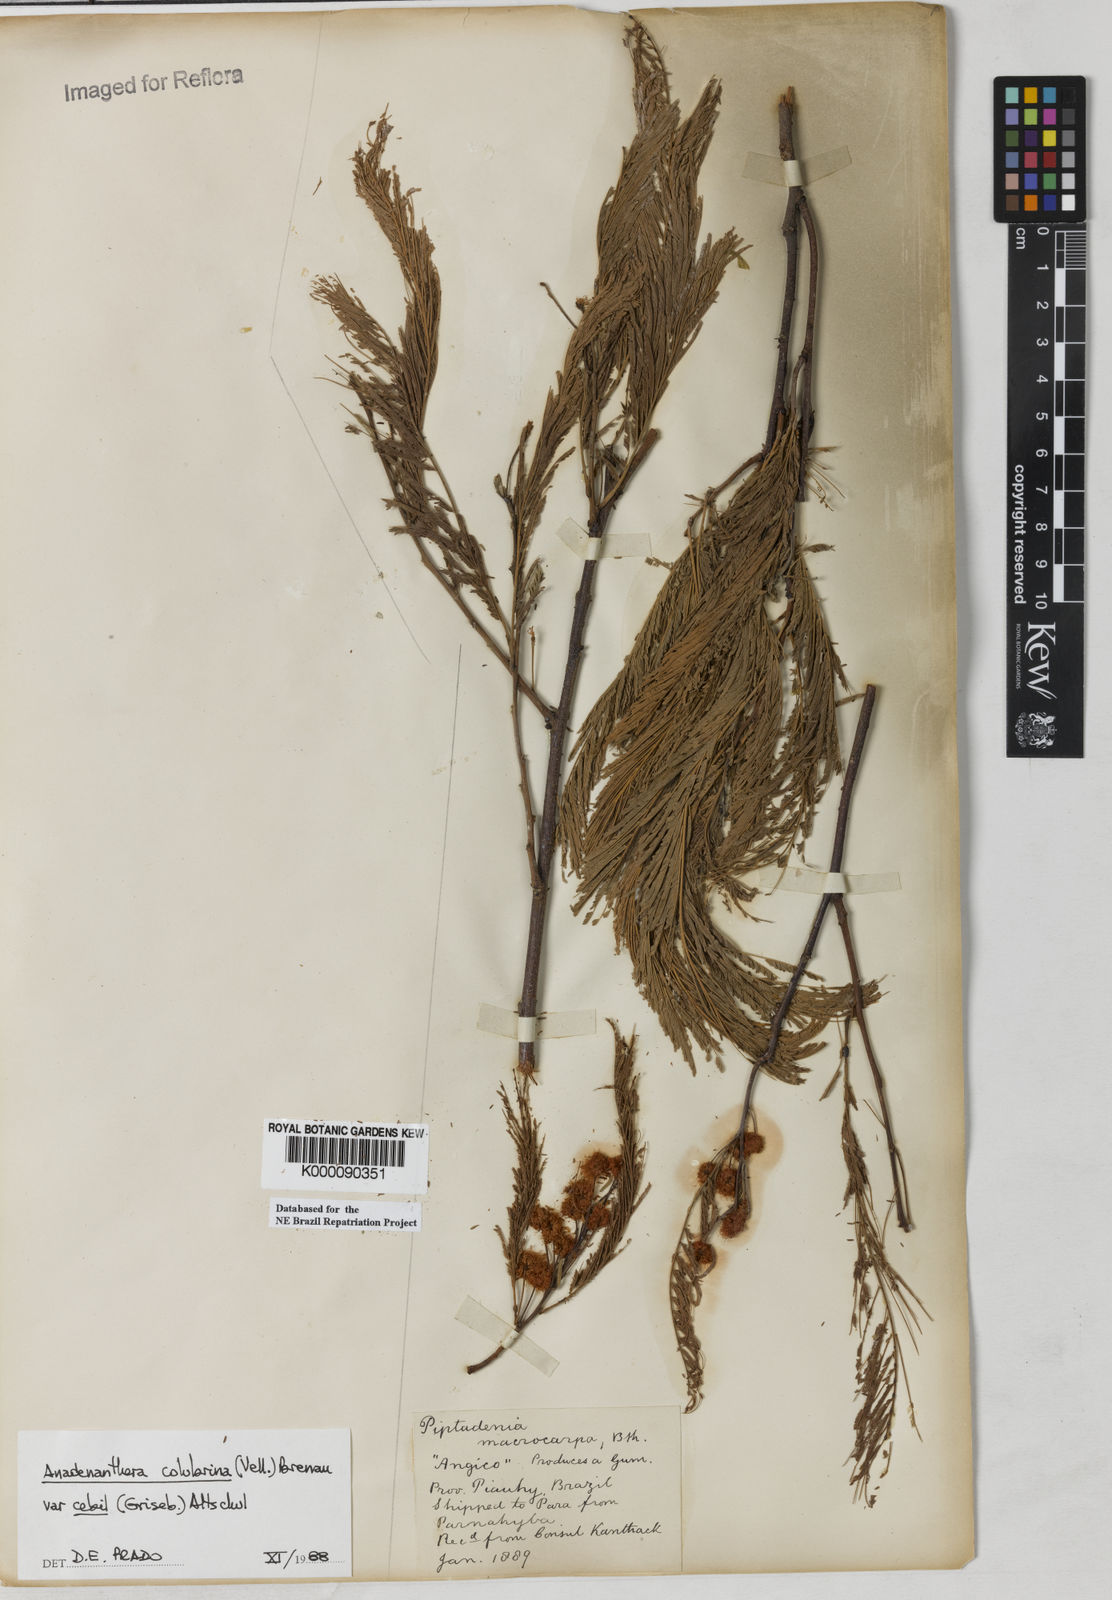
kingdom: Plantae
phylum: Tracheophyta
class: Magnoliopsida
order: Fabales
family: Fabaceae
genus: Anadenanthera
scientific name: Anadenanthera colubrina
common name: Curupay
